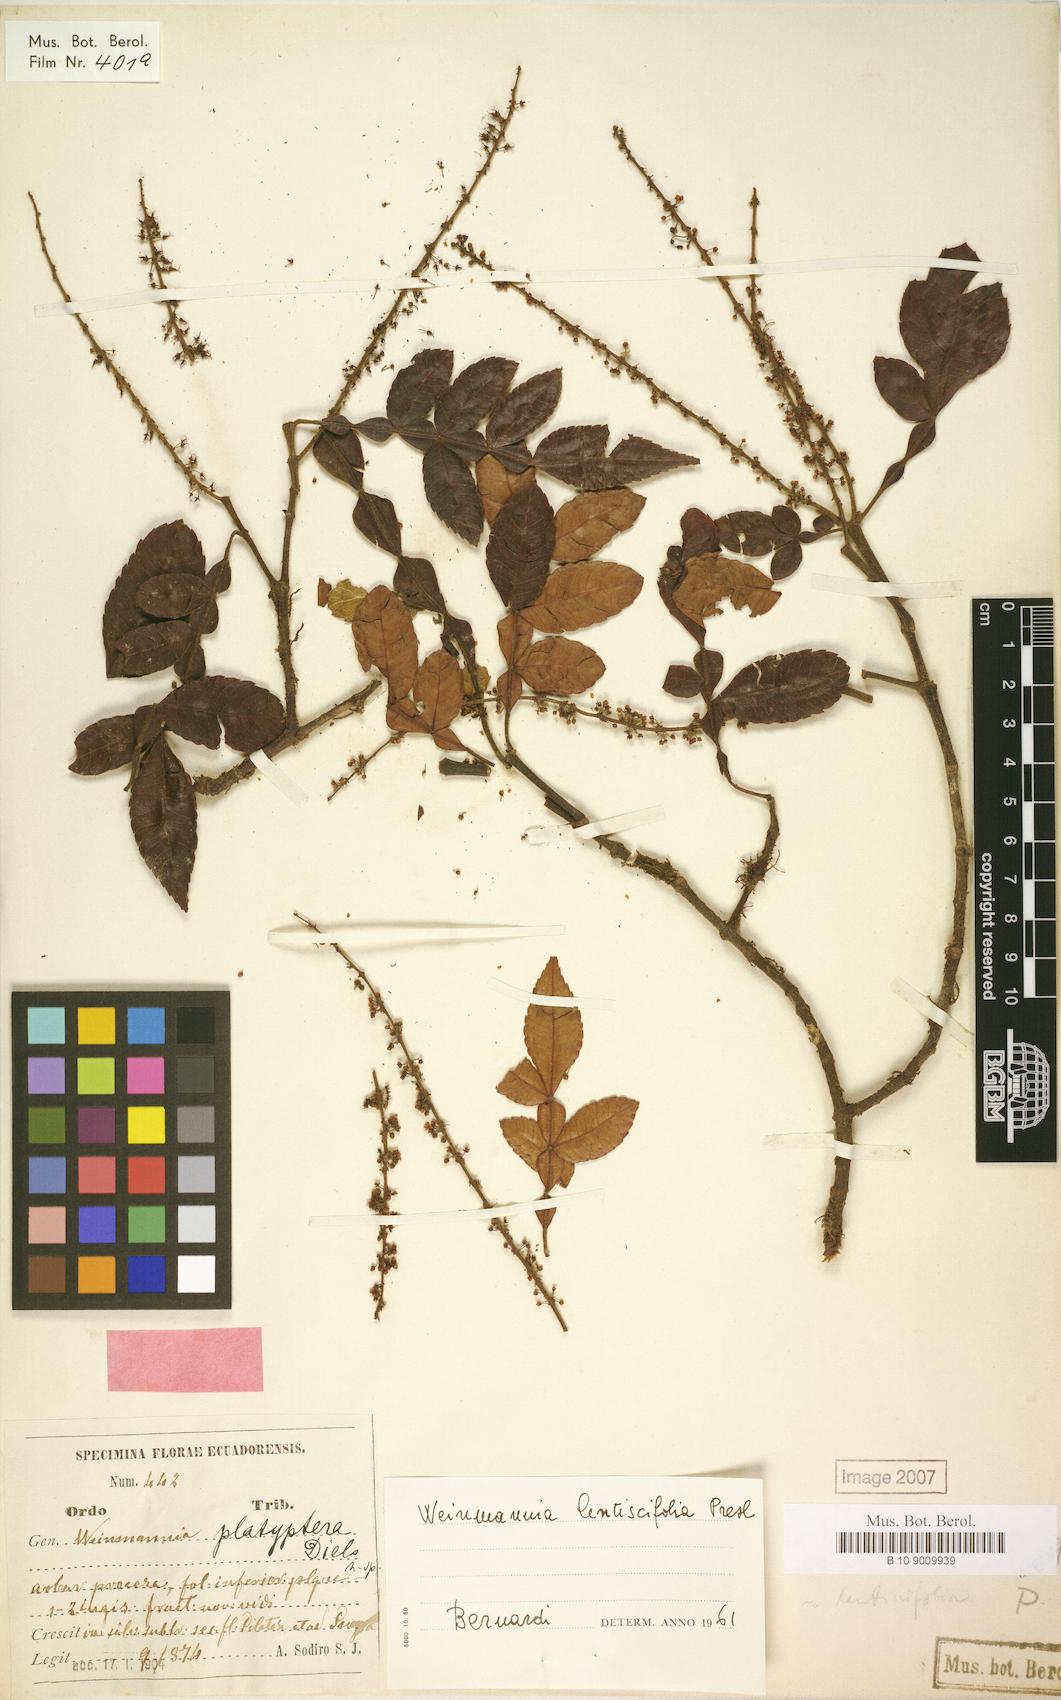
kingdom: Plantae
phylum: Tracheophyta
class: Magnoliopsida
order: Oxalidales
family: Cunoniaceae
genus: Weinmannia
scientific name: Weinmannia lentiscifolia
